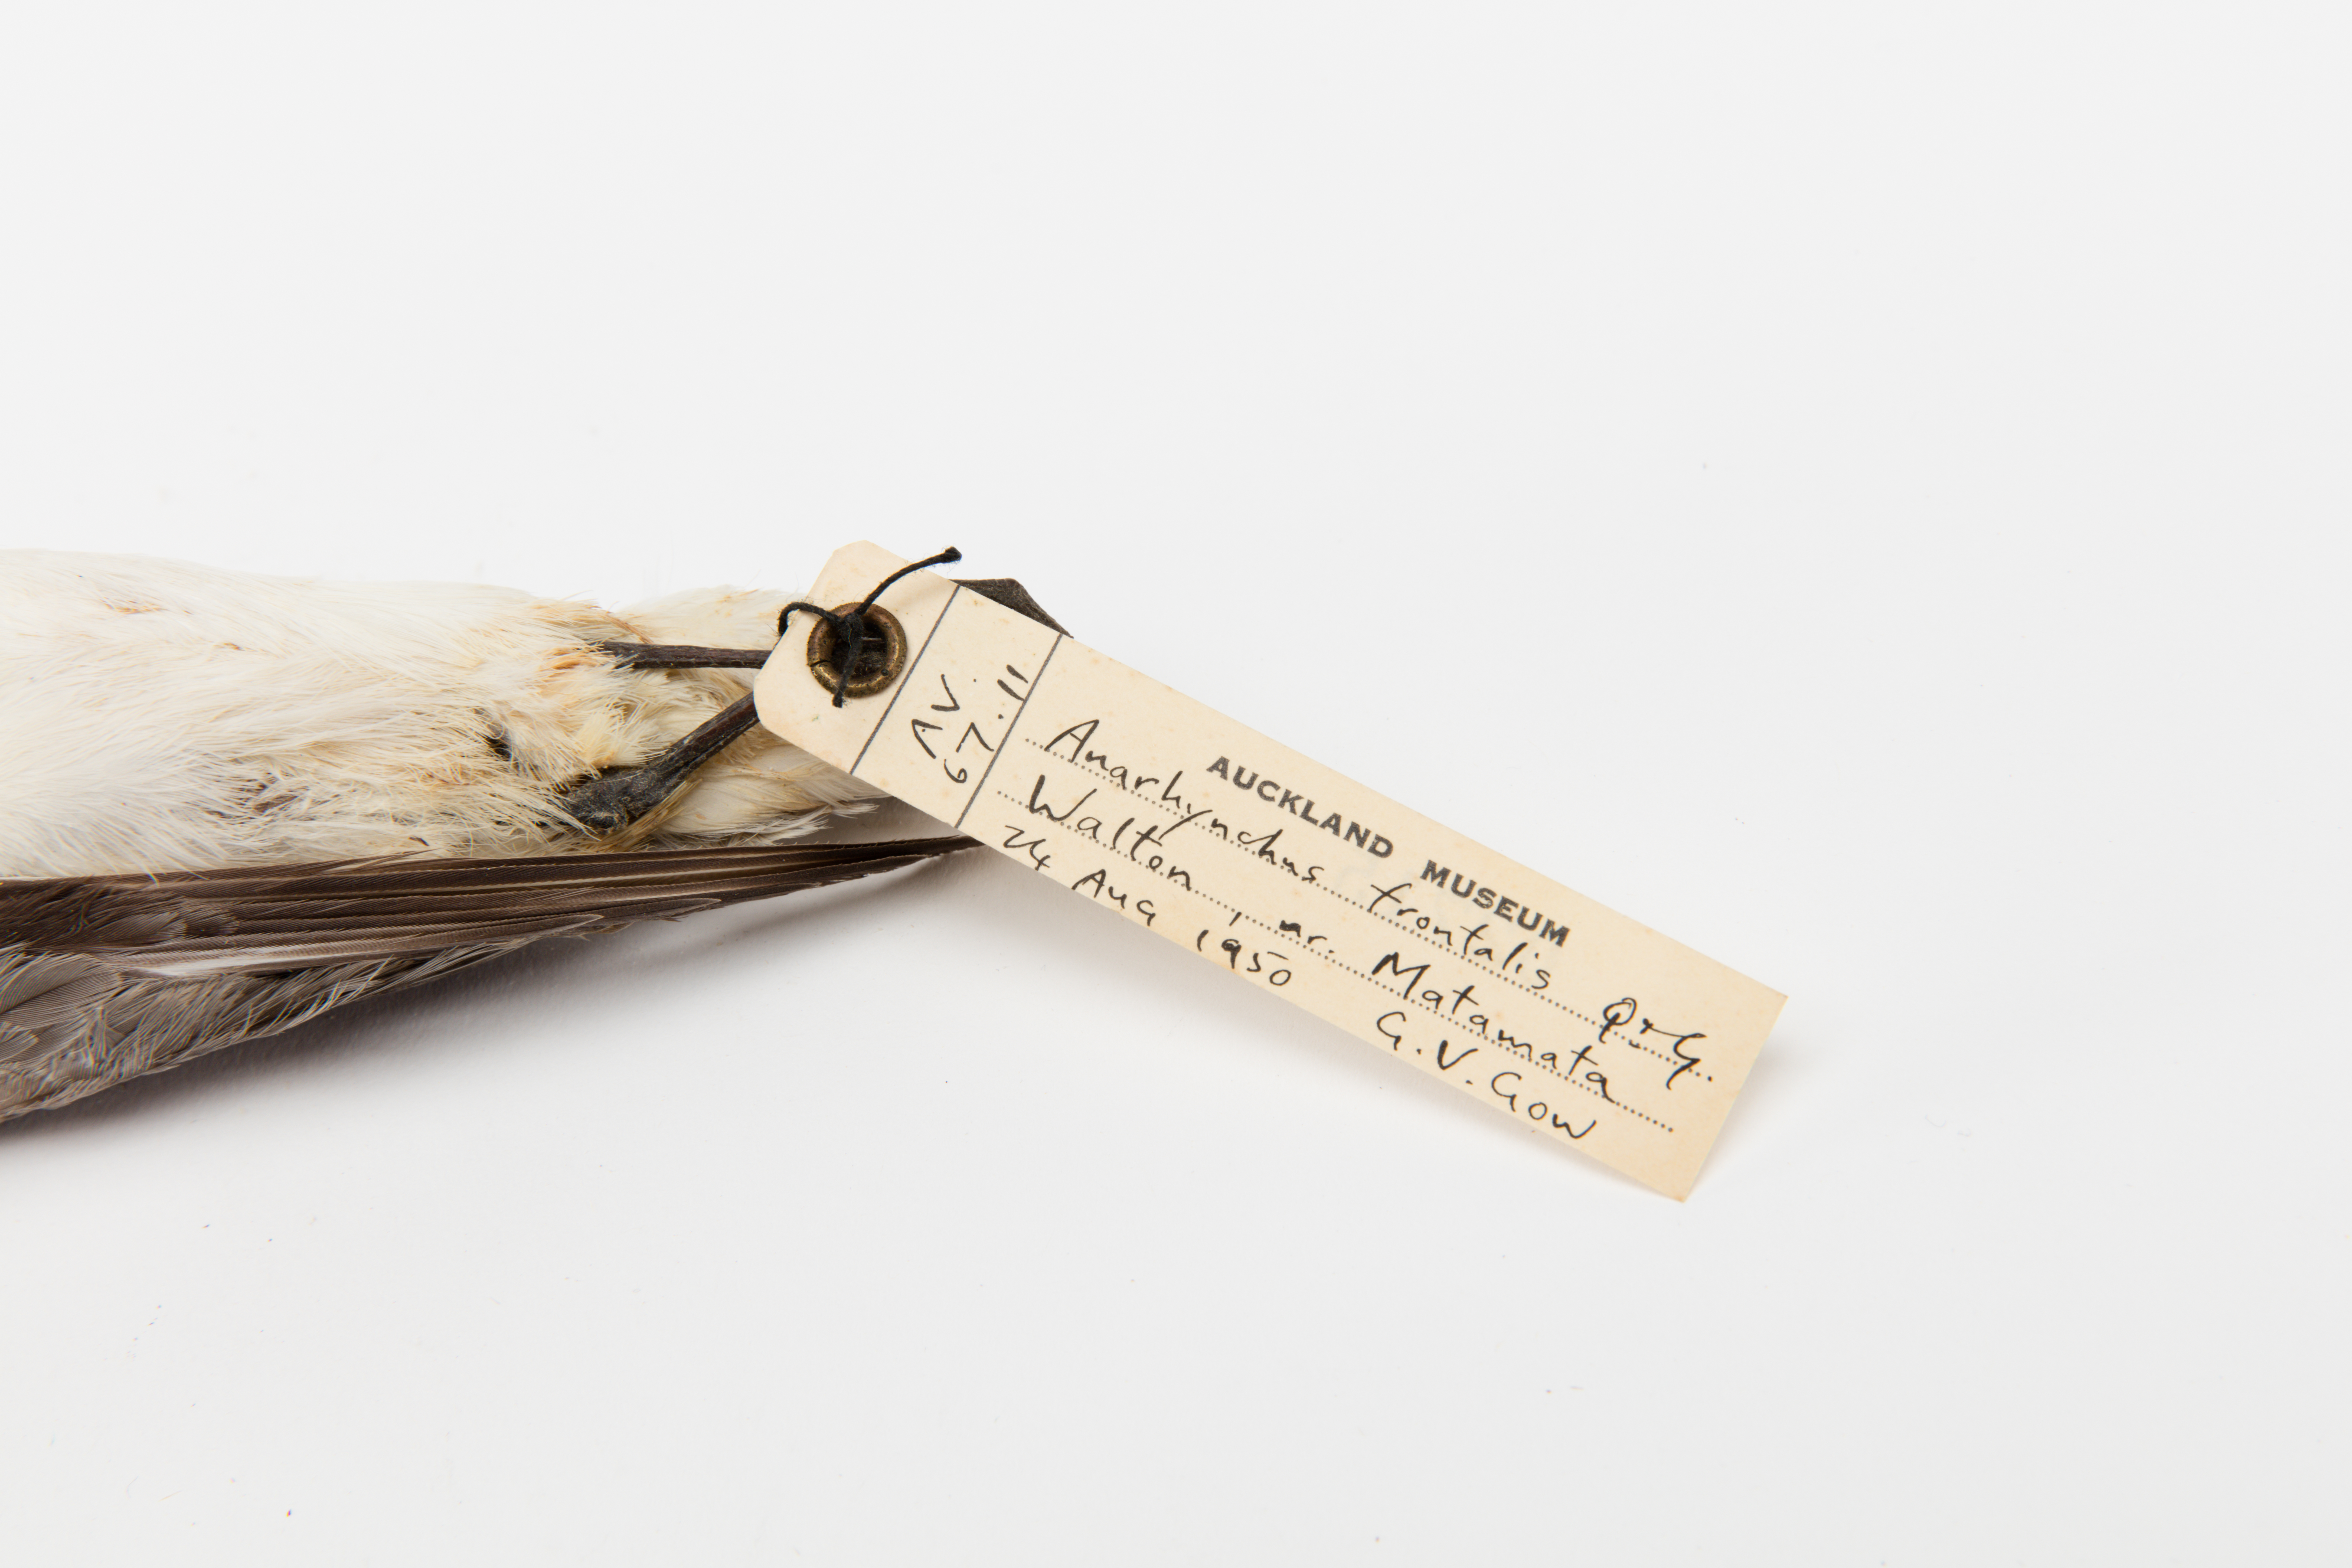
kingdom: Animalia
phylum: Chordata
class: Aves
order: Charadriiformes
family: Charadriidae
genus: Charadrius
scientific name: Charadrius frontalis
